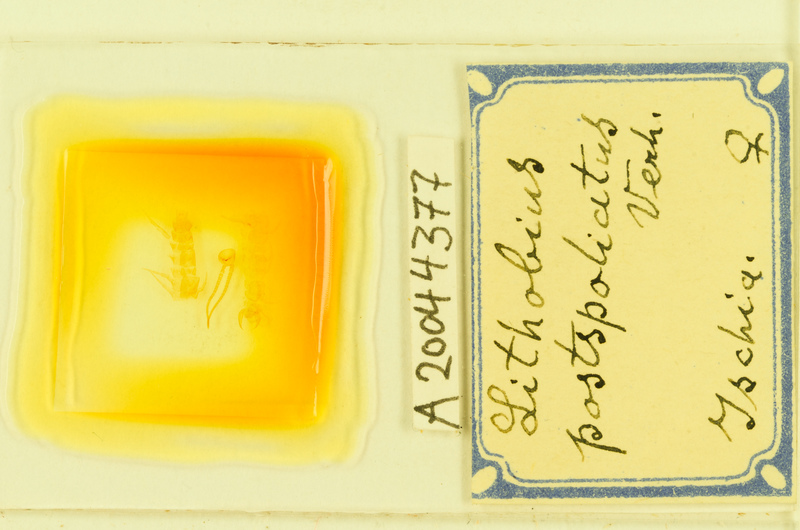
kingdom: Animalia
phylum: Arthropoda
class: Chilopoda
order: Lithobiomorpha
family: Lithobiidae
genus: Lithobius
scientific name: Lithobius tylopus
